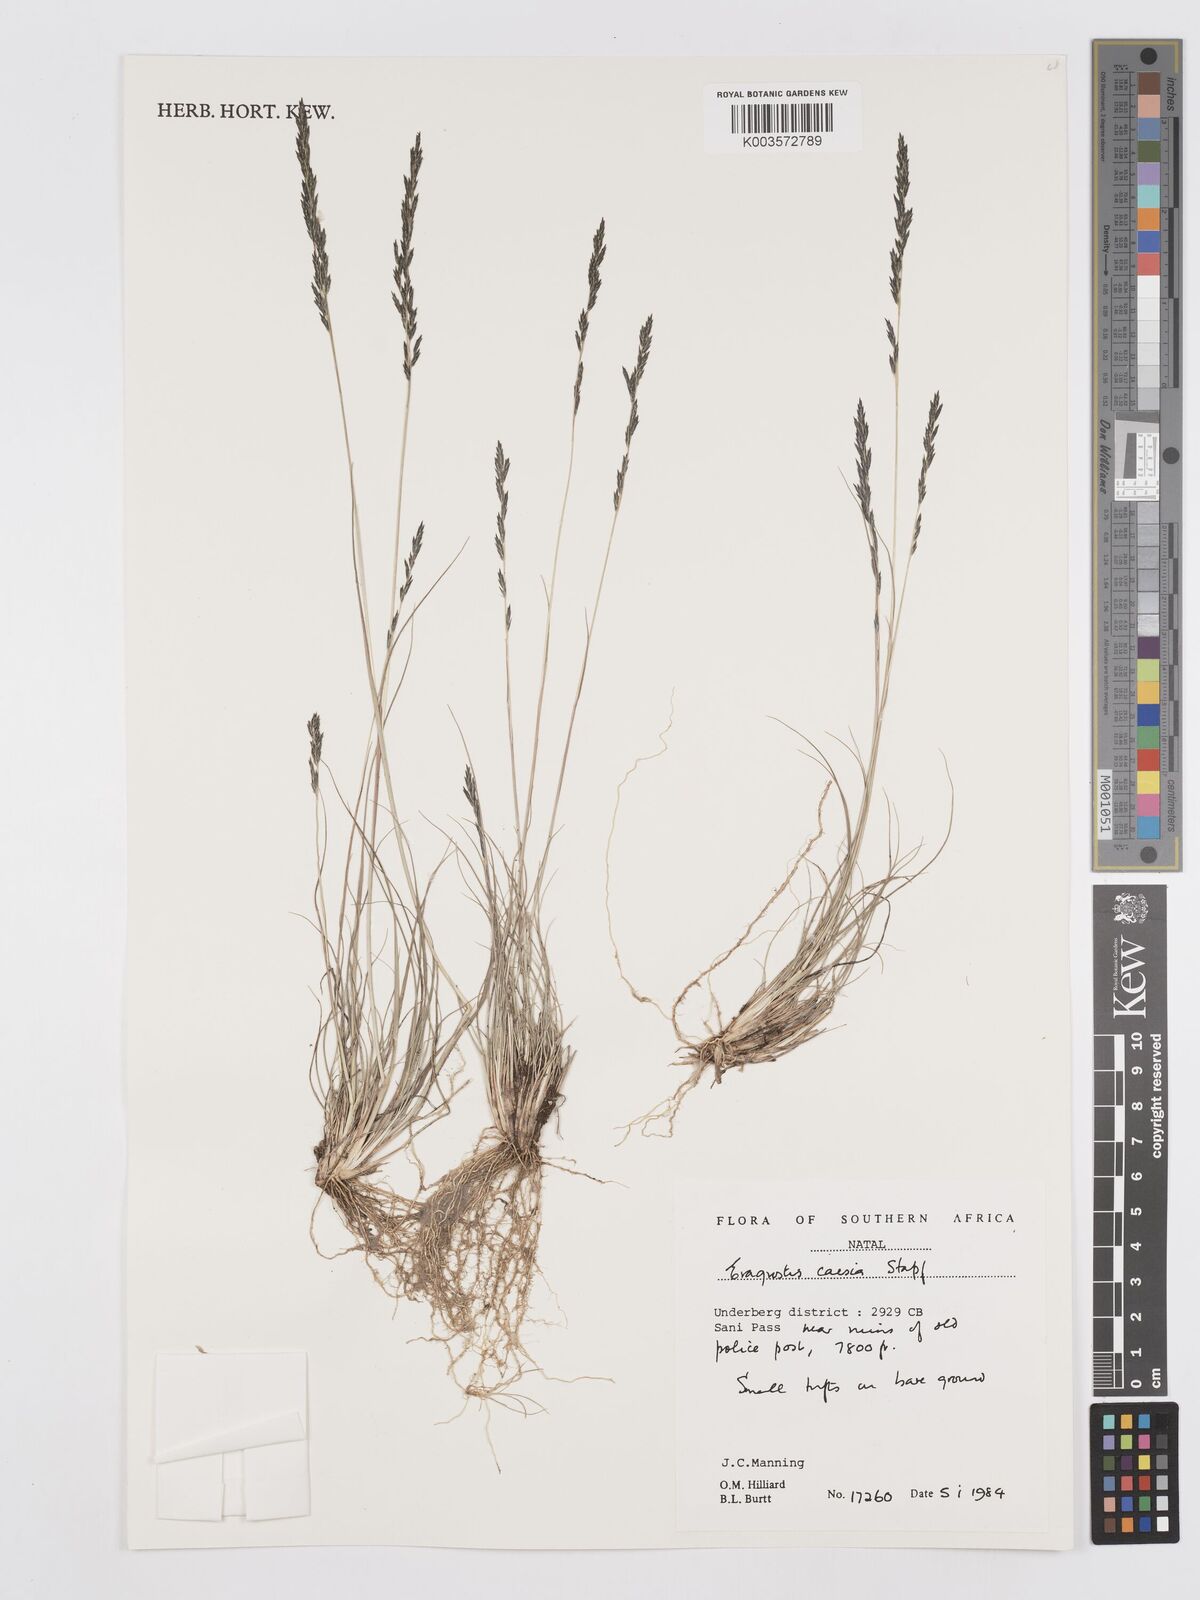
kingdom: Plantae
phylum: Tracheophyta
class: Liliopsida
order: Poales
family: Poaceae
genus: Eragrostis
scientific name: Eragrostis caesia
